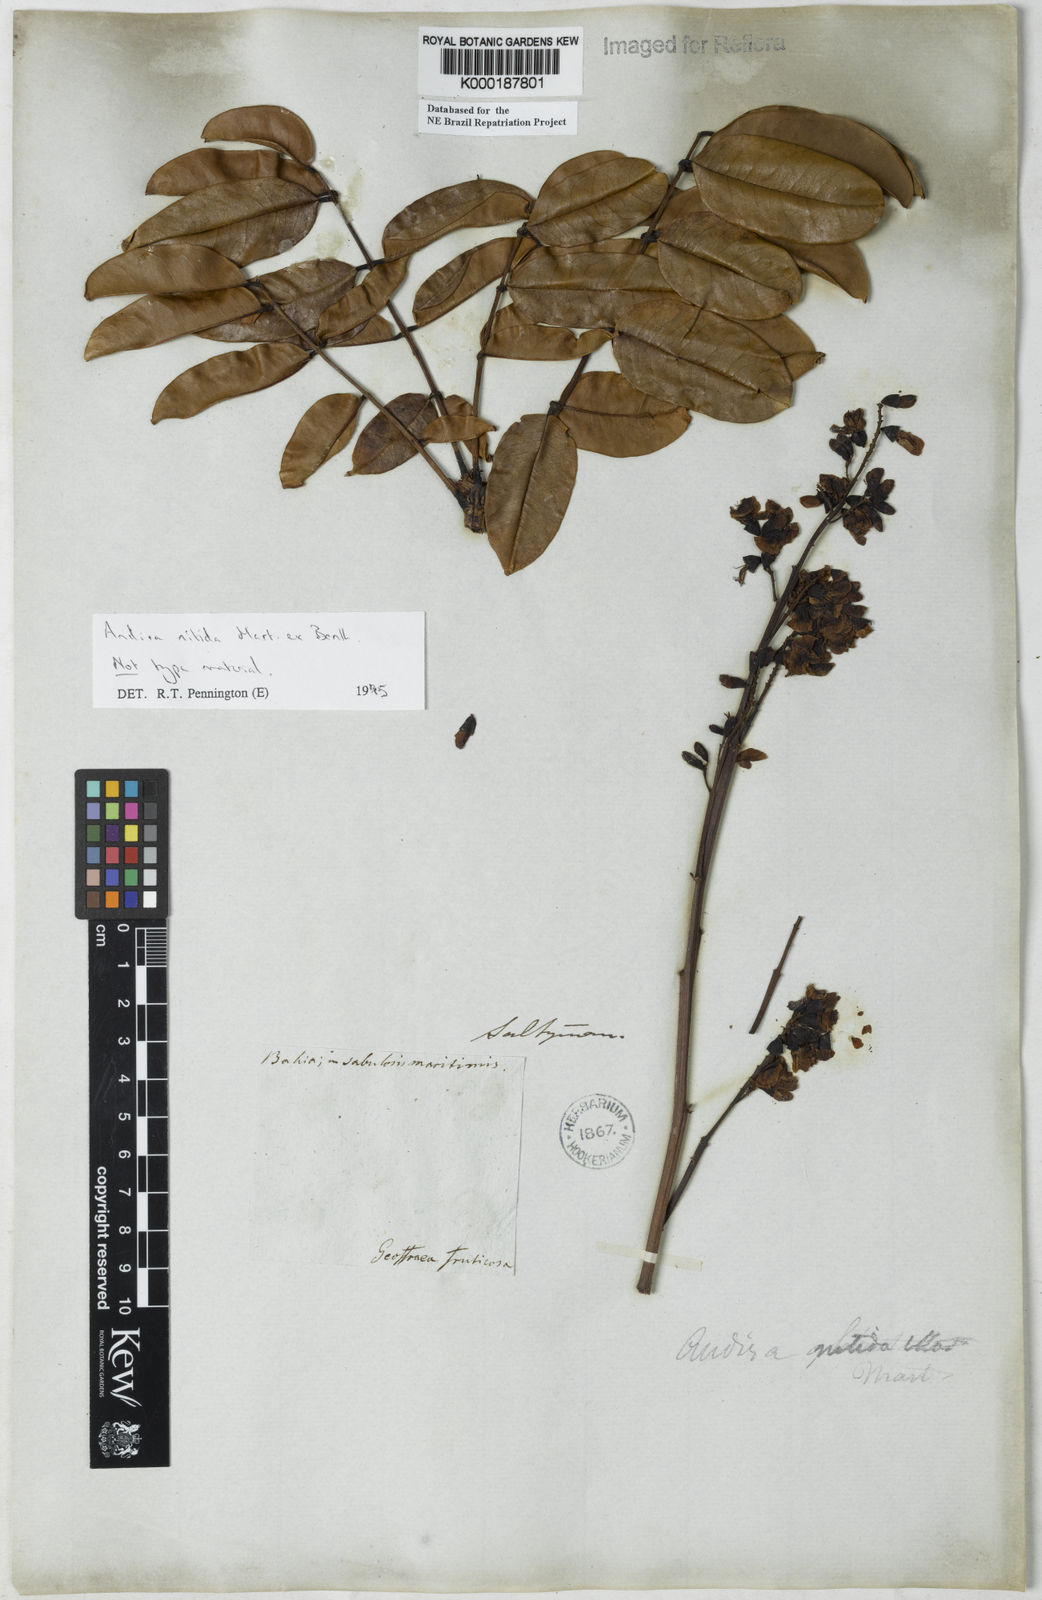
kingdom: Plantae
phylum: Tracheophyta
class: Magnoliopsida
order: Fabales
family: Fabaceae
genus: Andira
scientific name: Andira nitida
